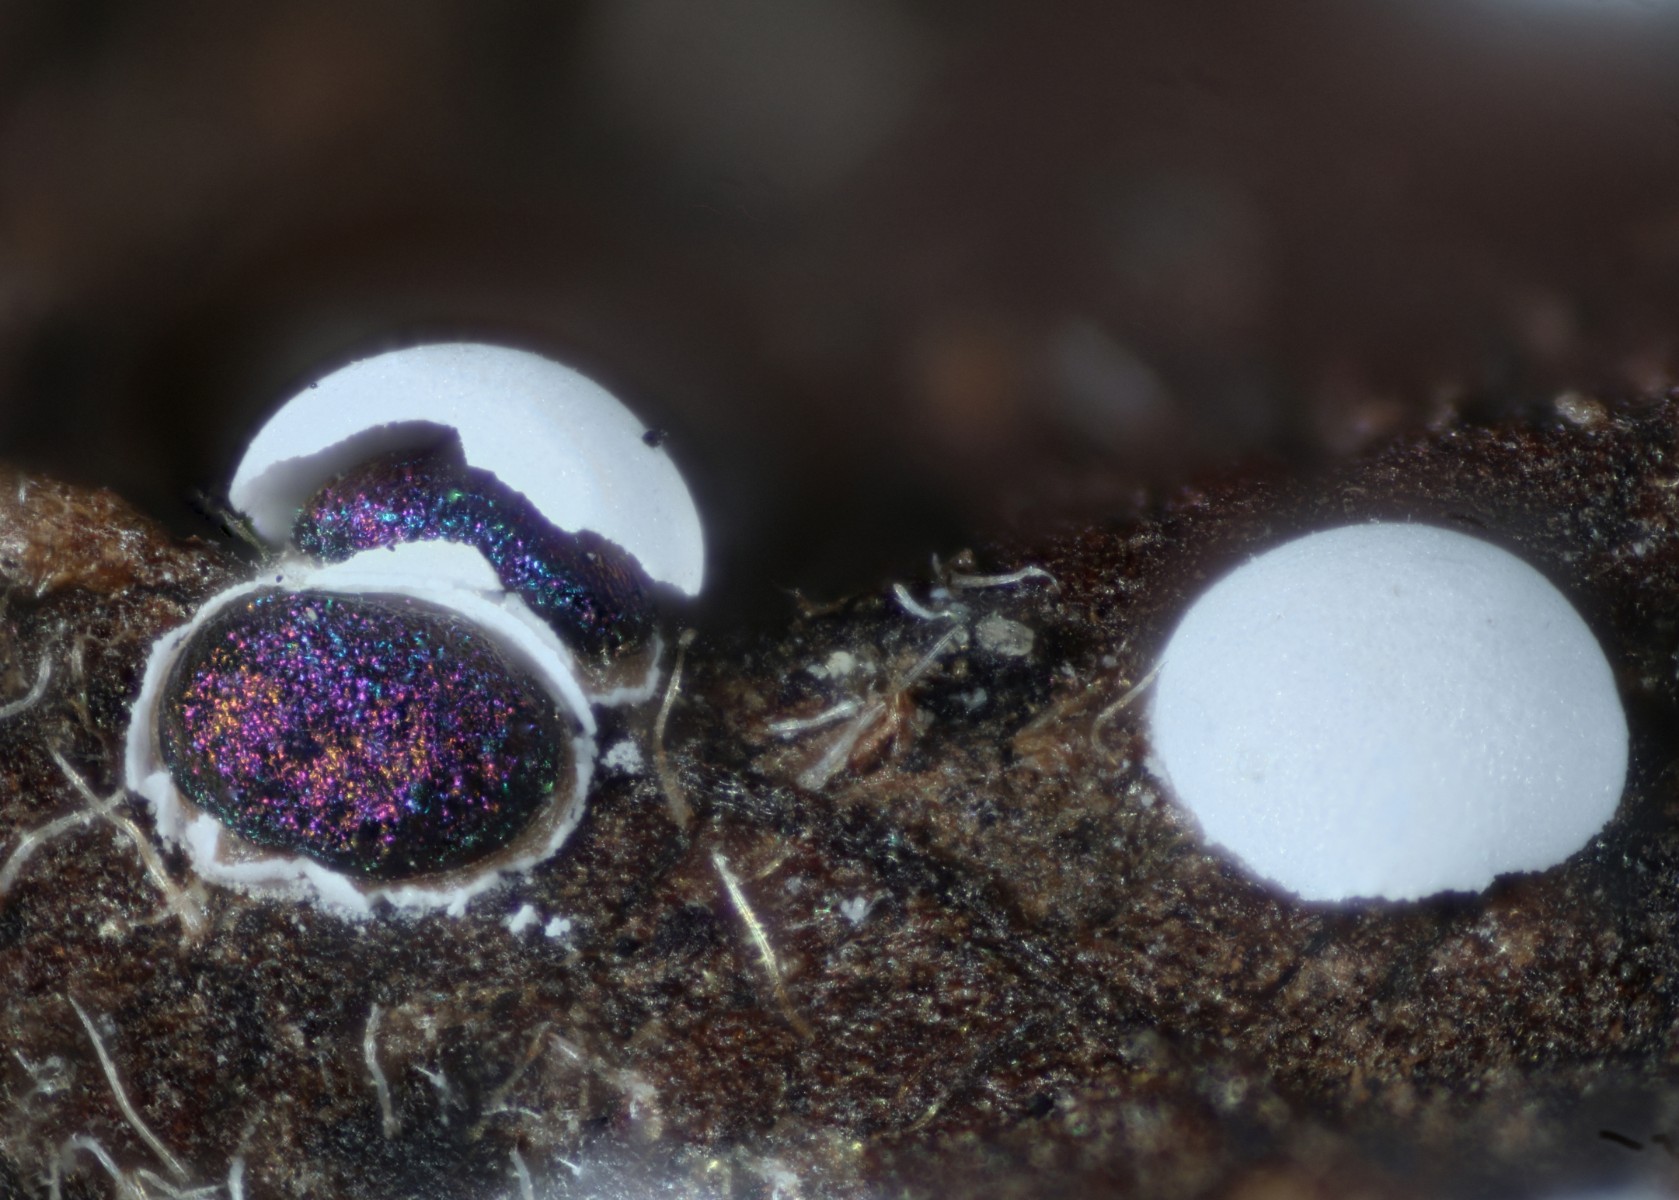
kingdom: Protozoa
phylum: Mycetozoa
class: Myxomycetes
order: Physarales
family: Didymiaceae
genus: Didymium
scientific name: Didymium melanospermum
